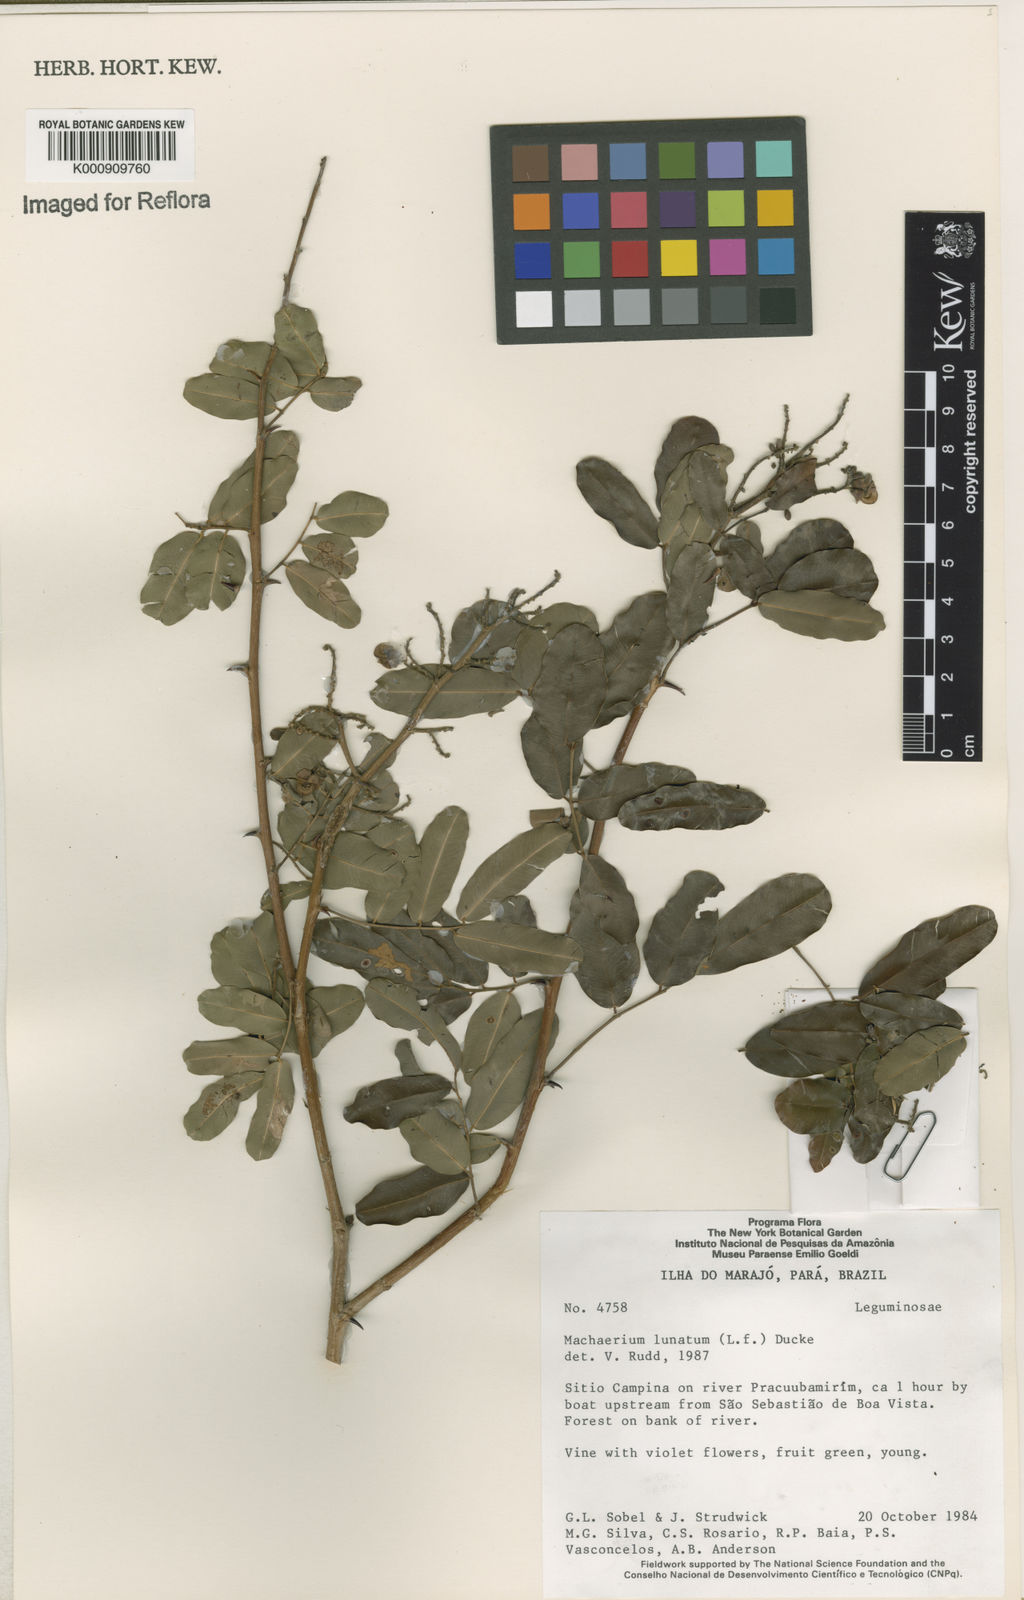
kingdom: Plantae
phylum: Tracheophyta
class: Magnoliopsida
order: Fabales
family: Fabaceae
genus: Machaerium
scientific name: Machaerium lunatum
